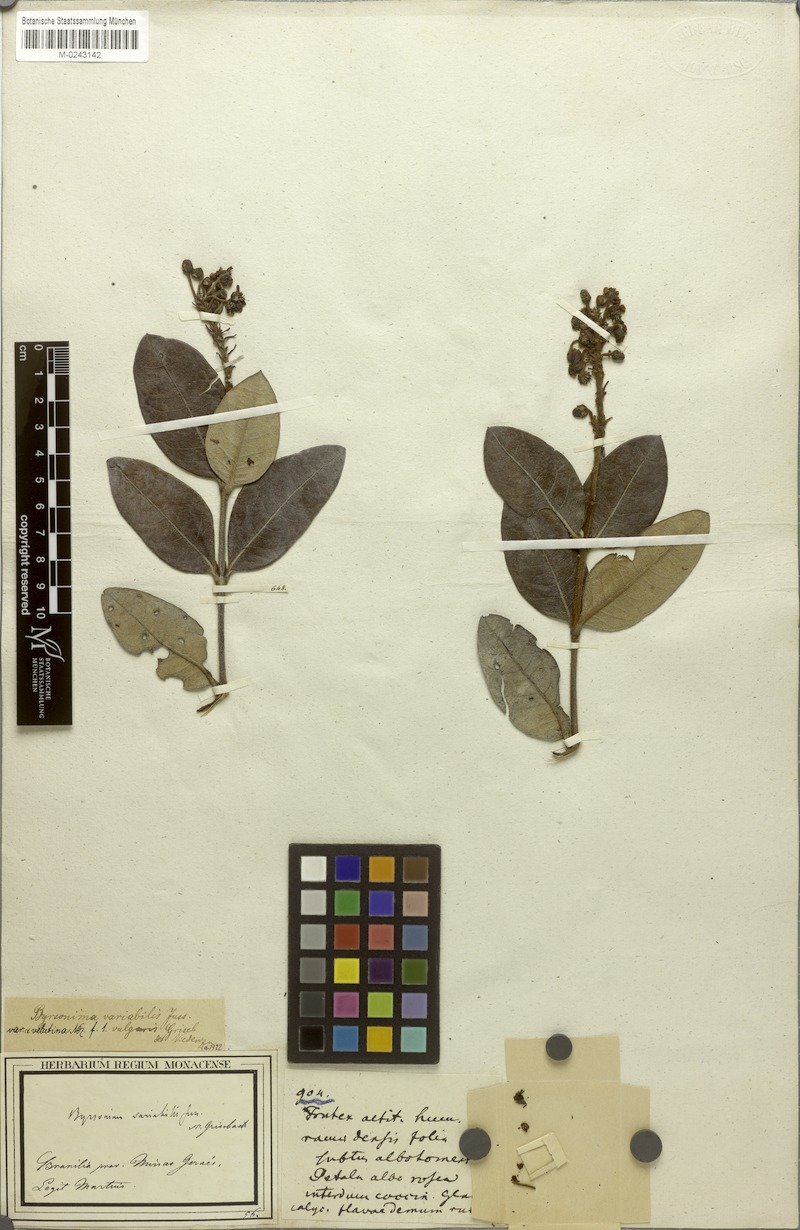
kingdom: Plantae
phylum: Tracheophyta
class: Magnoliopsida
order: Malpighiales
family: Malpighiaceae
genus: Byrsonima
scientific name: Byrsonima variabilis
